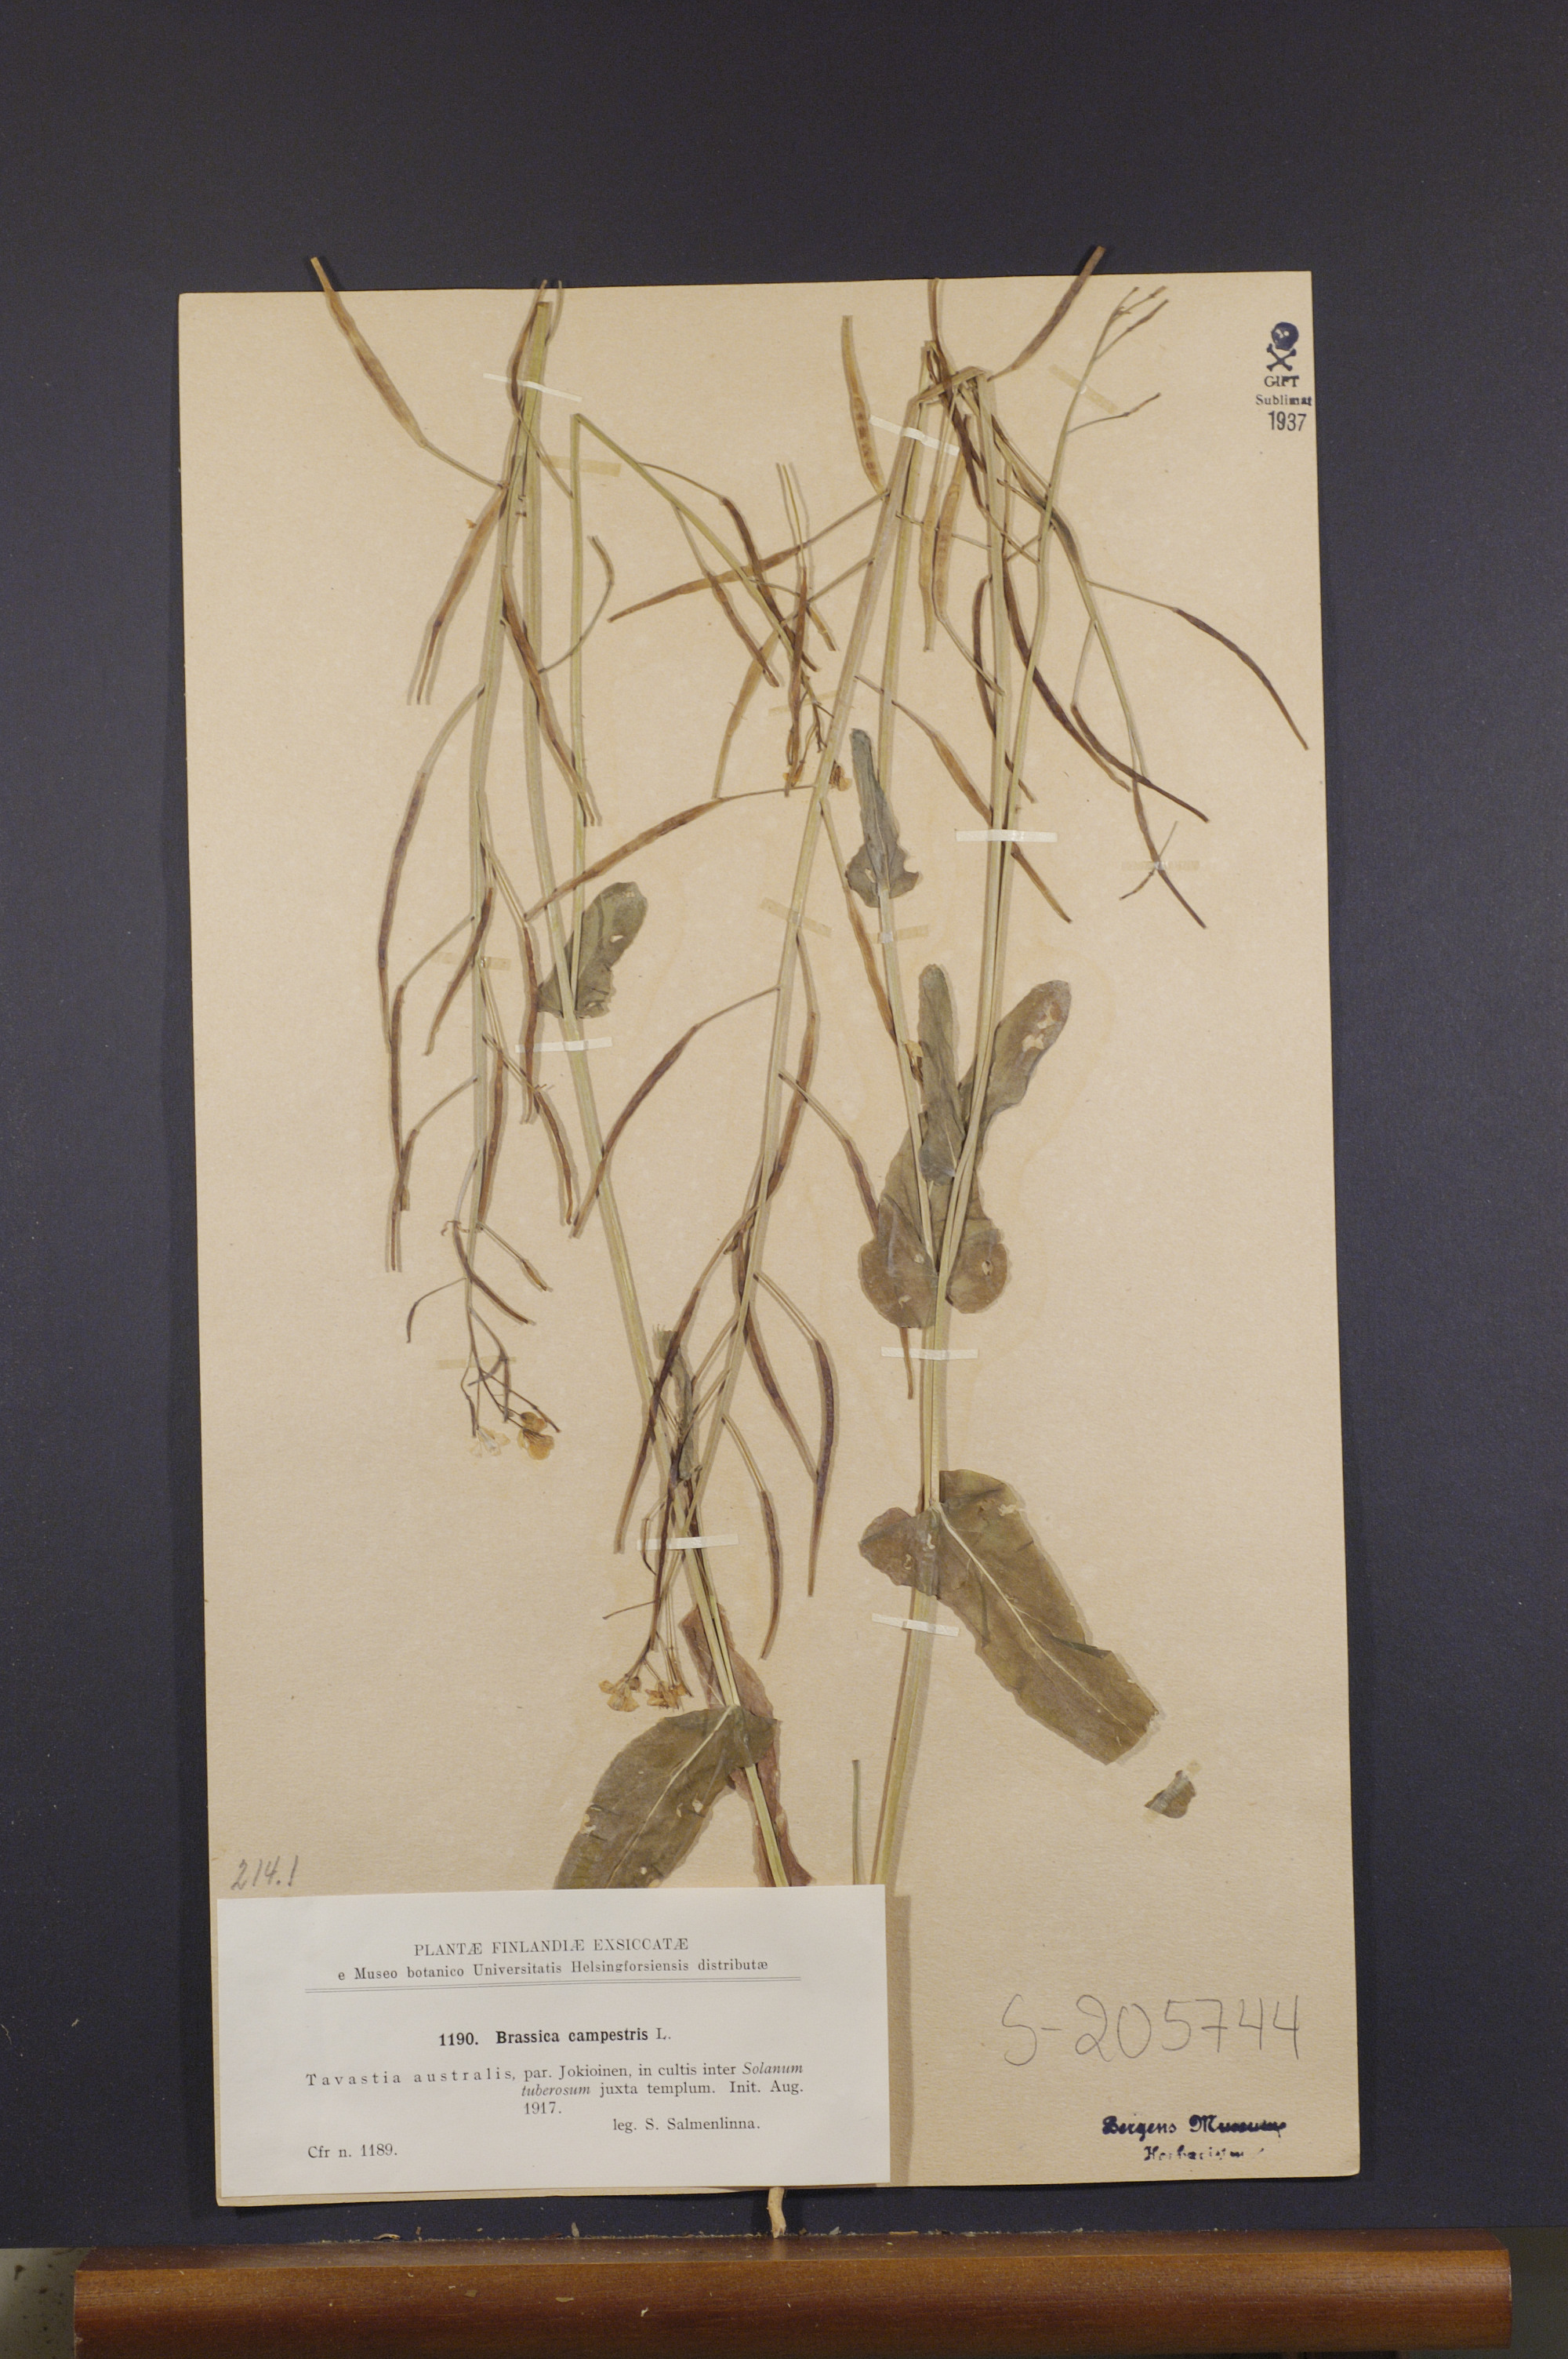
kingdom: Plantae
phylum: Tracheophyta
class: Magnoliopsida
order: Brassicales
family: Brassicaceae
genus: Brassica
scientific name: Brassica rapa
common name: Field mustard
